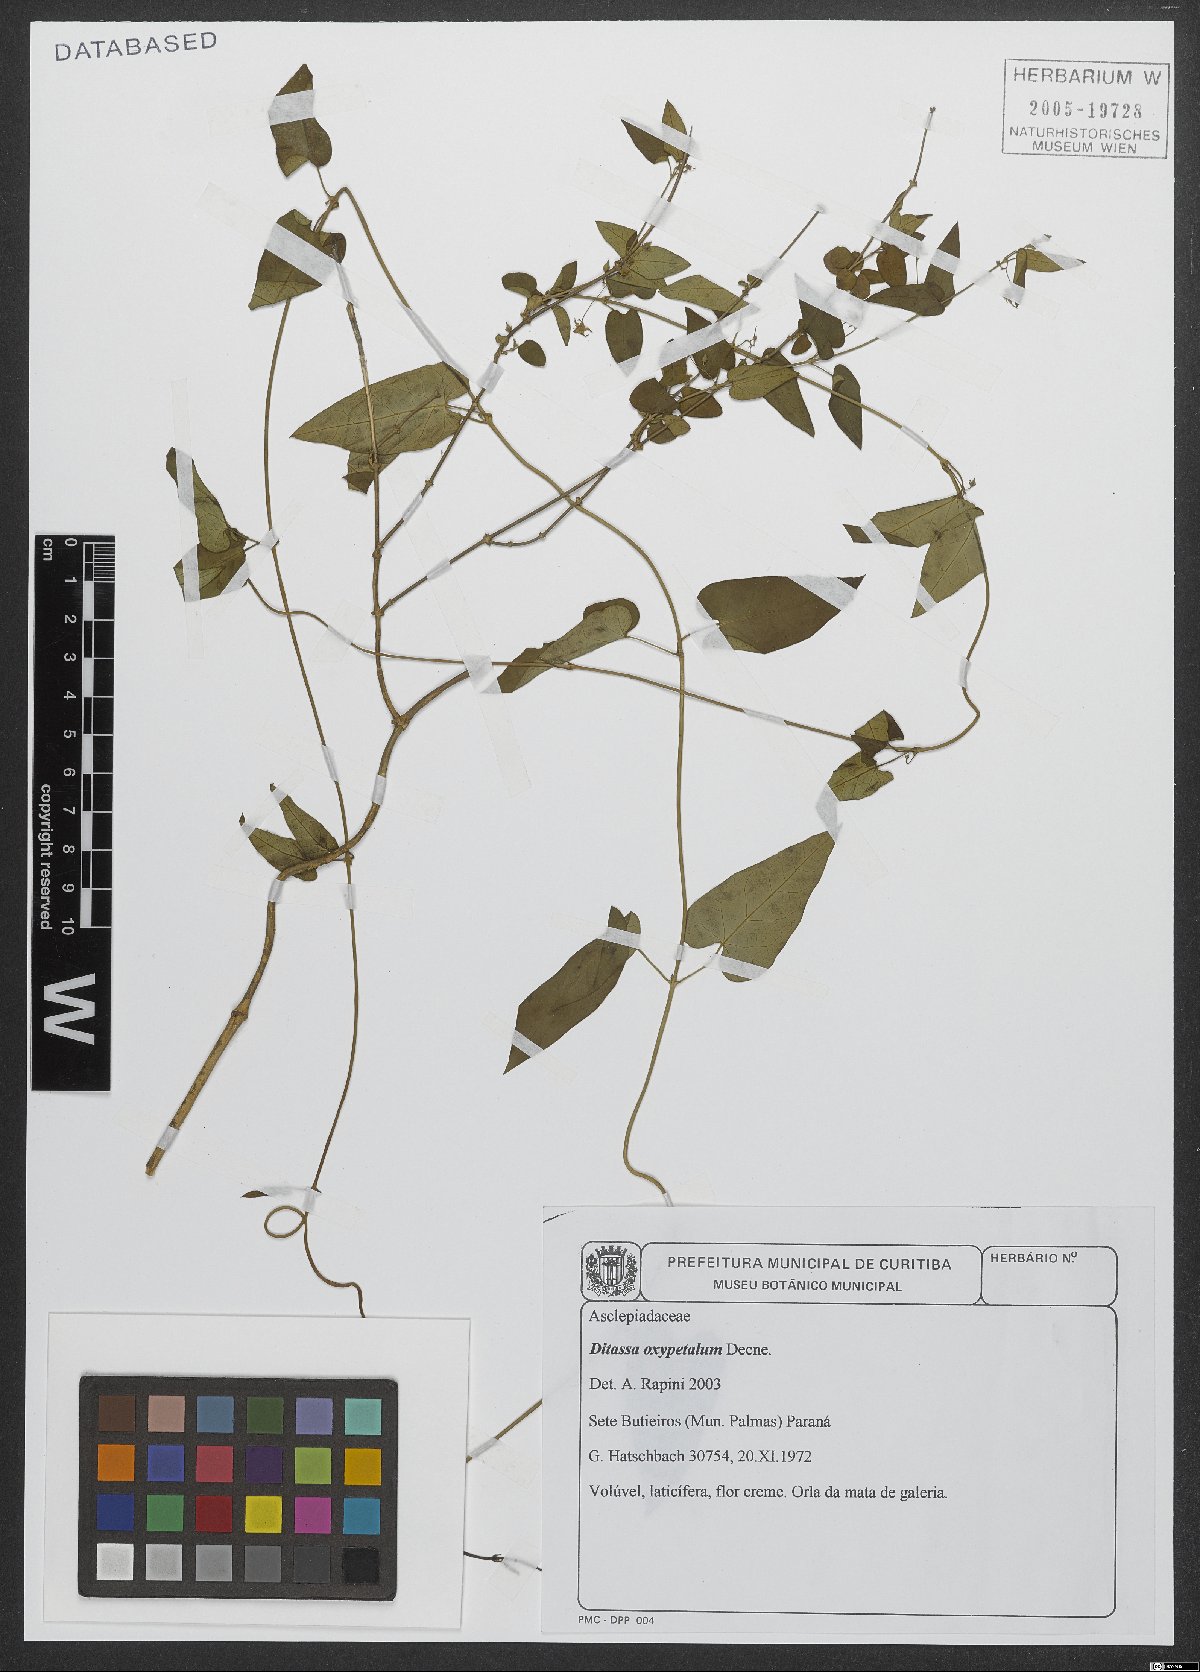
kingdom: Plantae
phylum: Tracheophyta
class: Magnoliopsida
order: Gentianales
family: Apocynaceae
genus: Oxypetalum
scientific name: Oxypetalum megapotamicum
